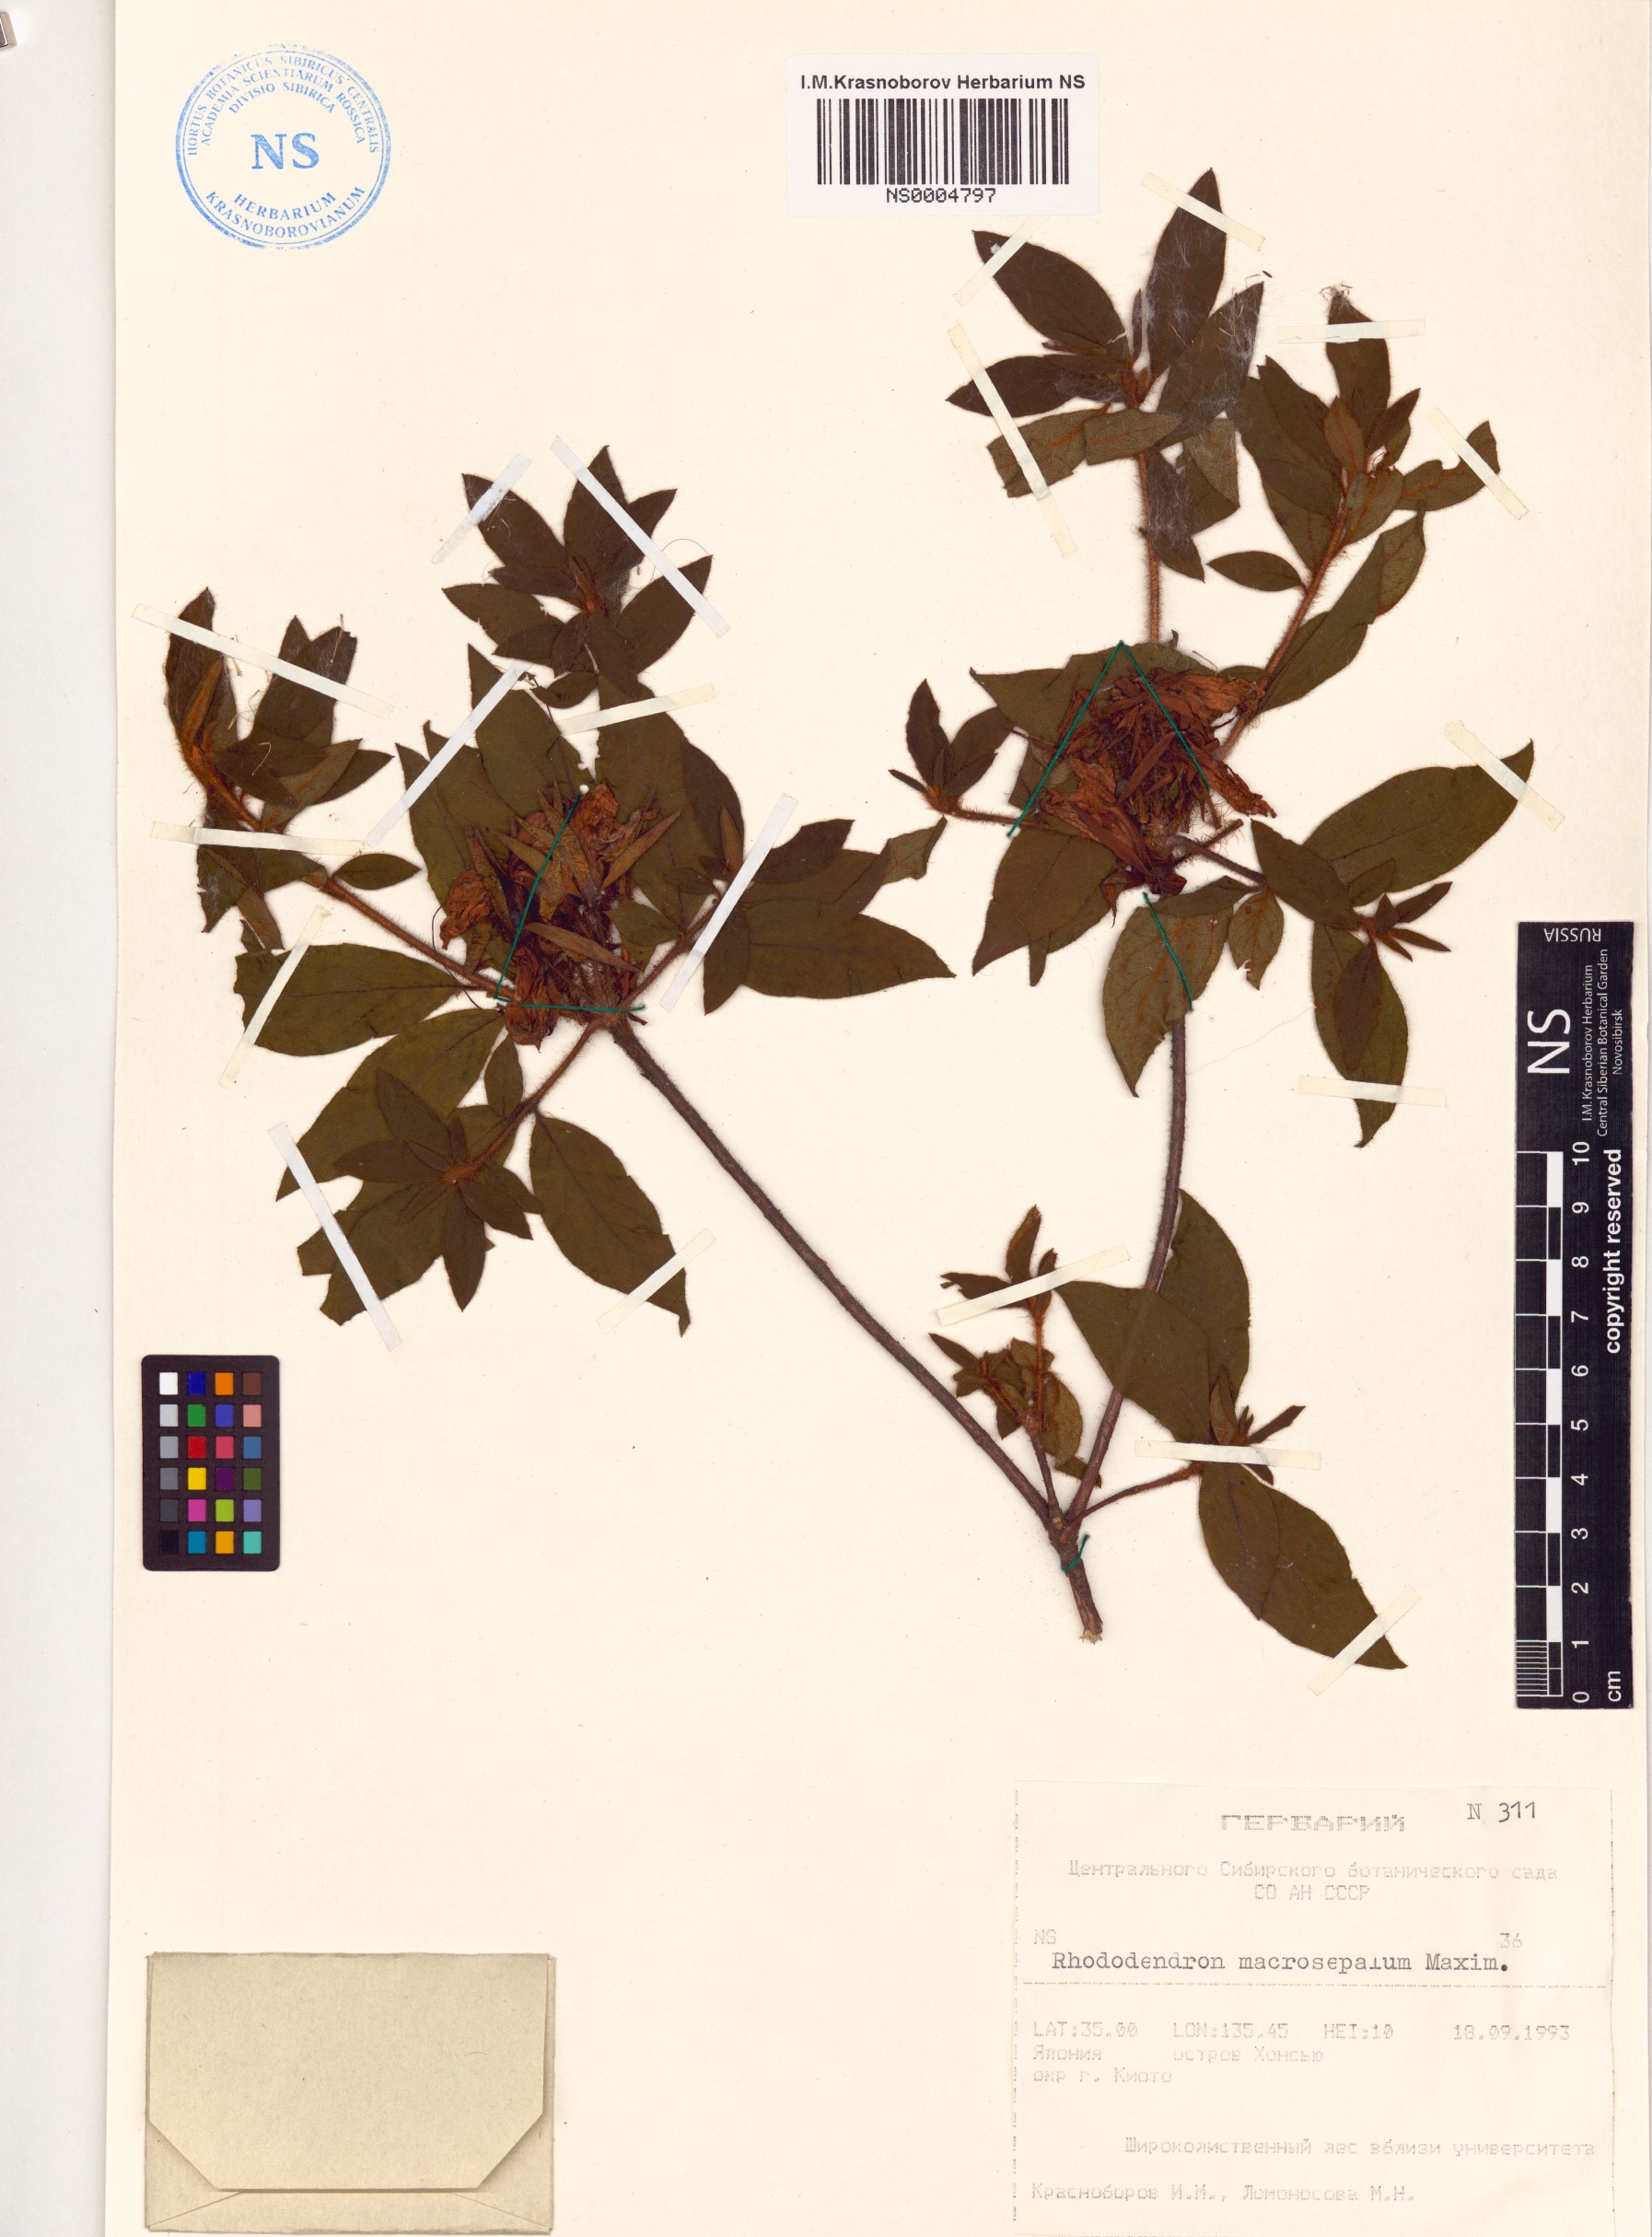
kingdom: Plantae
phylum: Tracheophyta
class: Magnoliopsida
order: Ericales
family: Ericaceae
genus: Rhododendron
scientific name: Rhododendron stenopetalum
